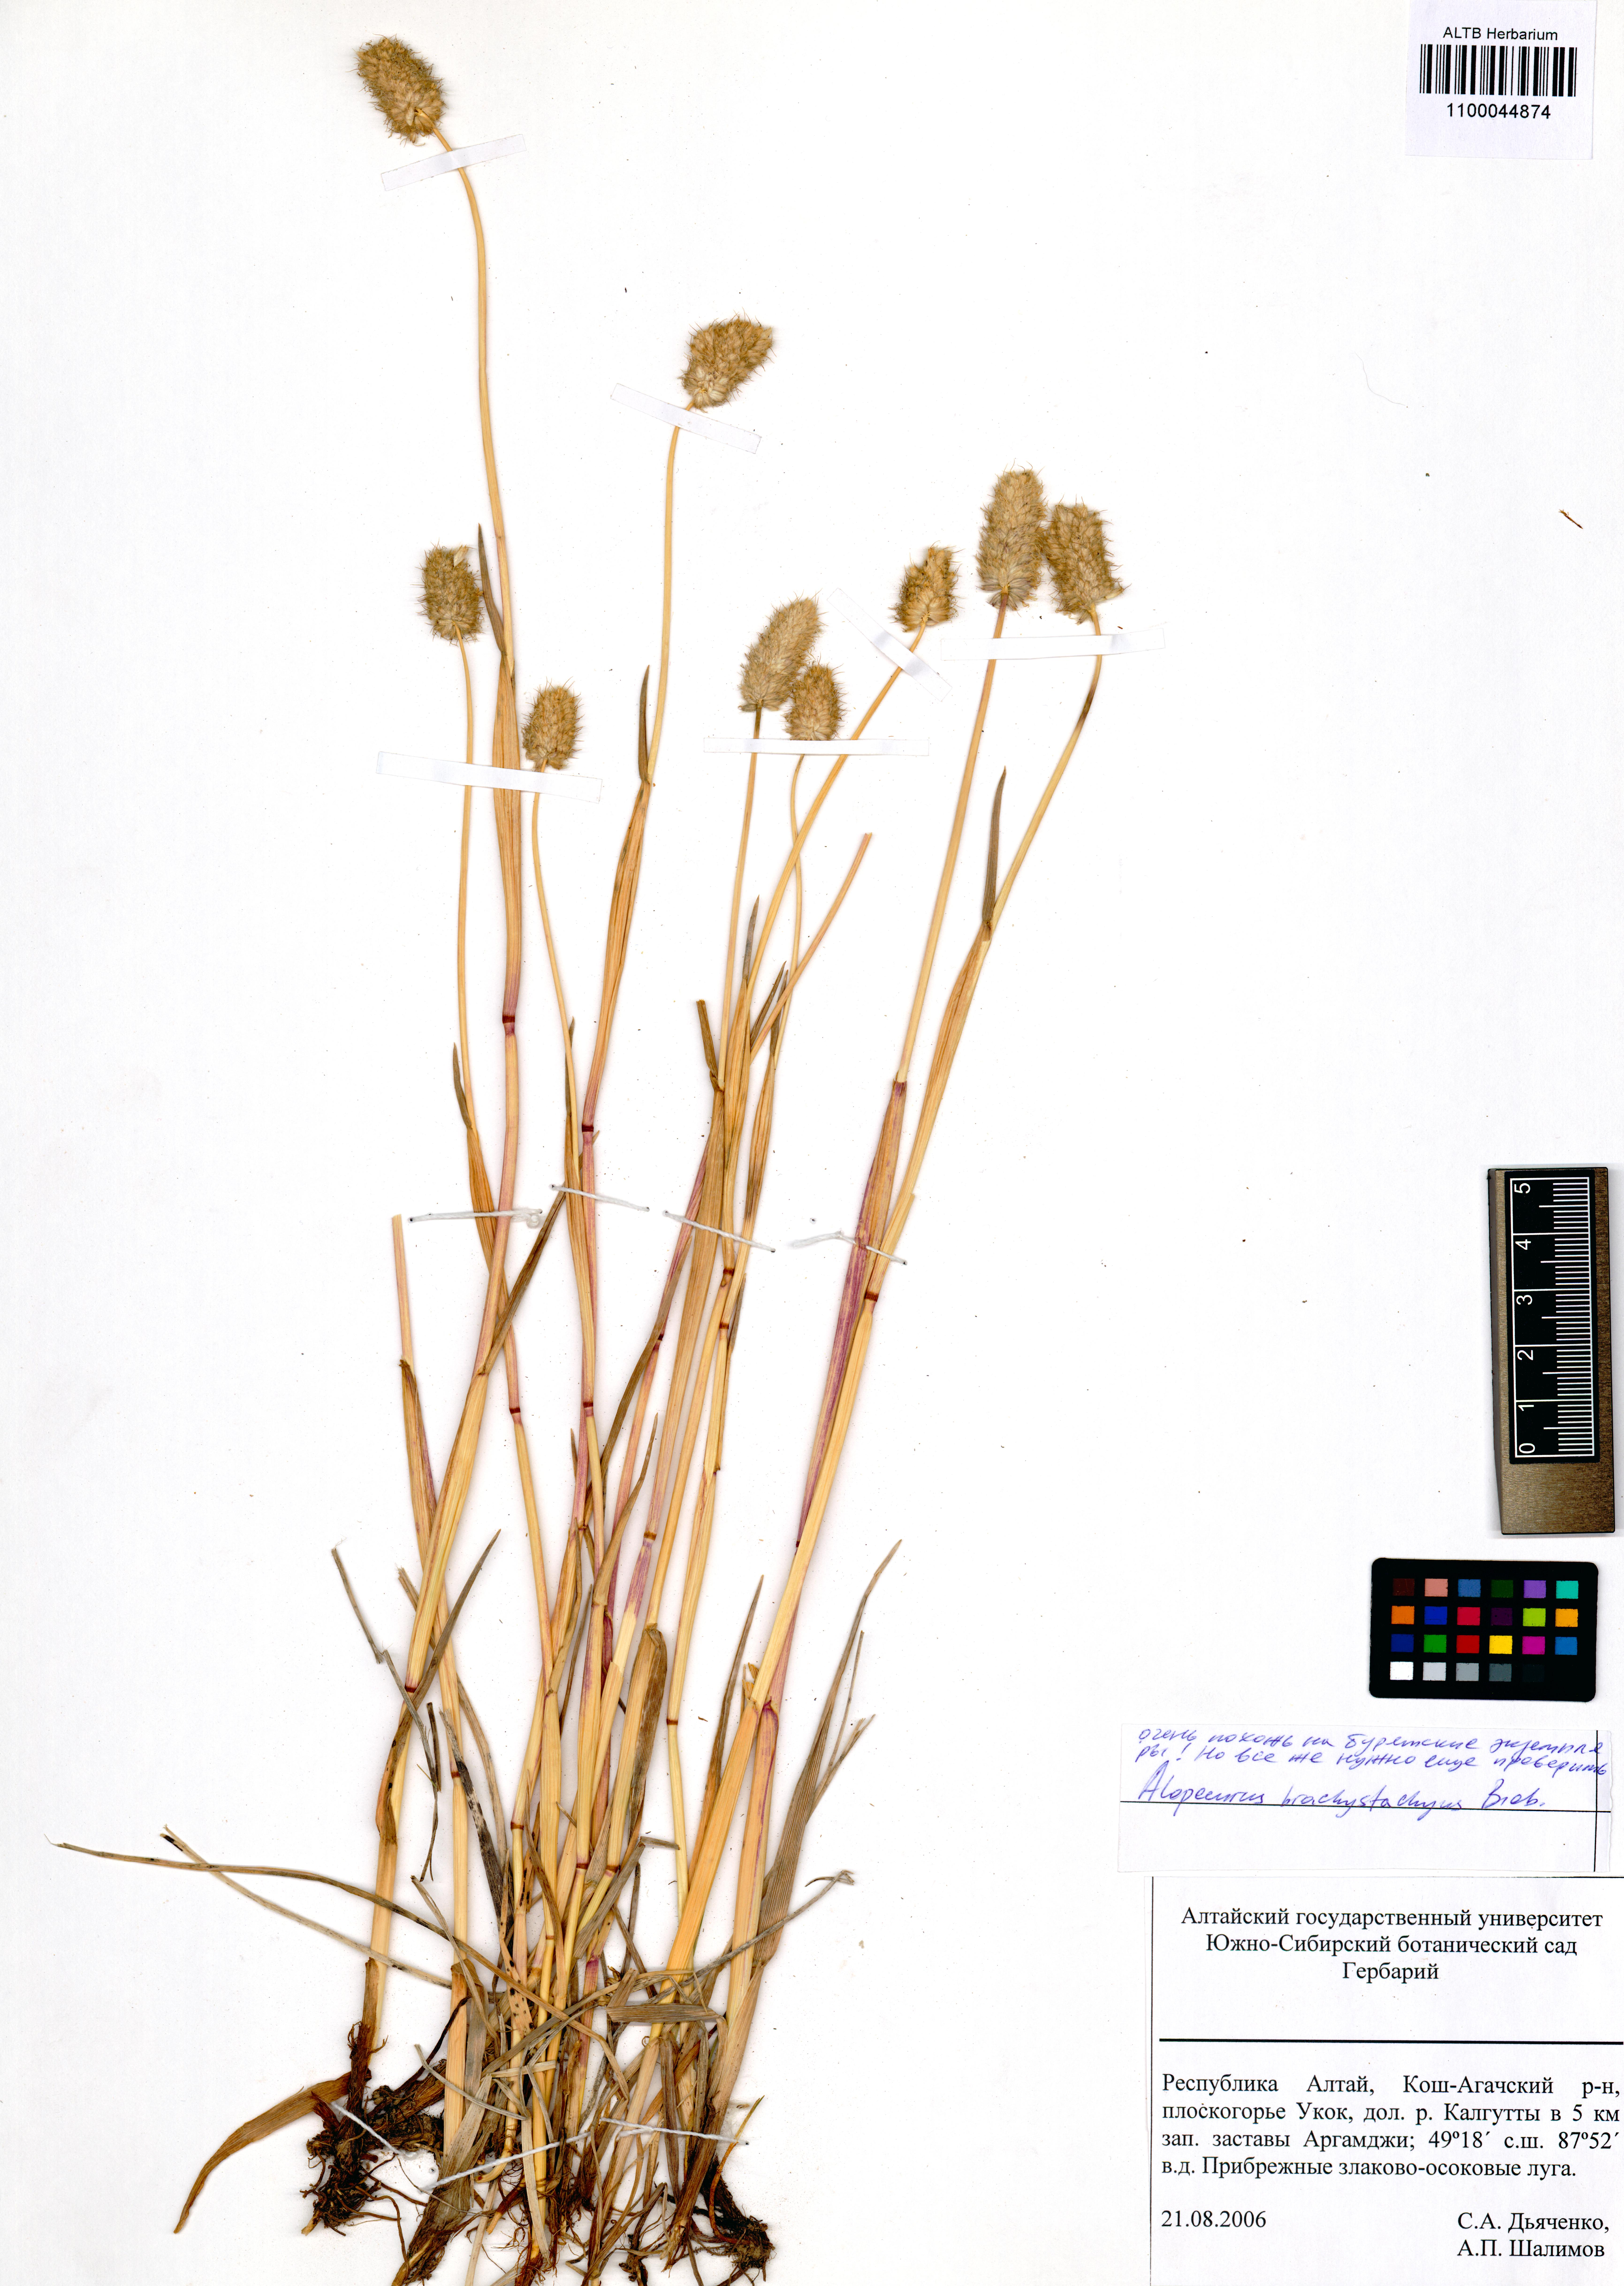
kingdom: Plantae
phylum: Tracheophyta
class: Liliopsida
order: Poales
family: Poaceae
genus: Alopecurus
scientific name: Alopecurus brachystachyus
